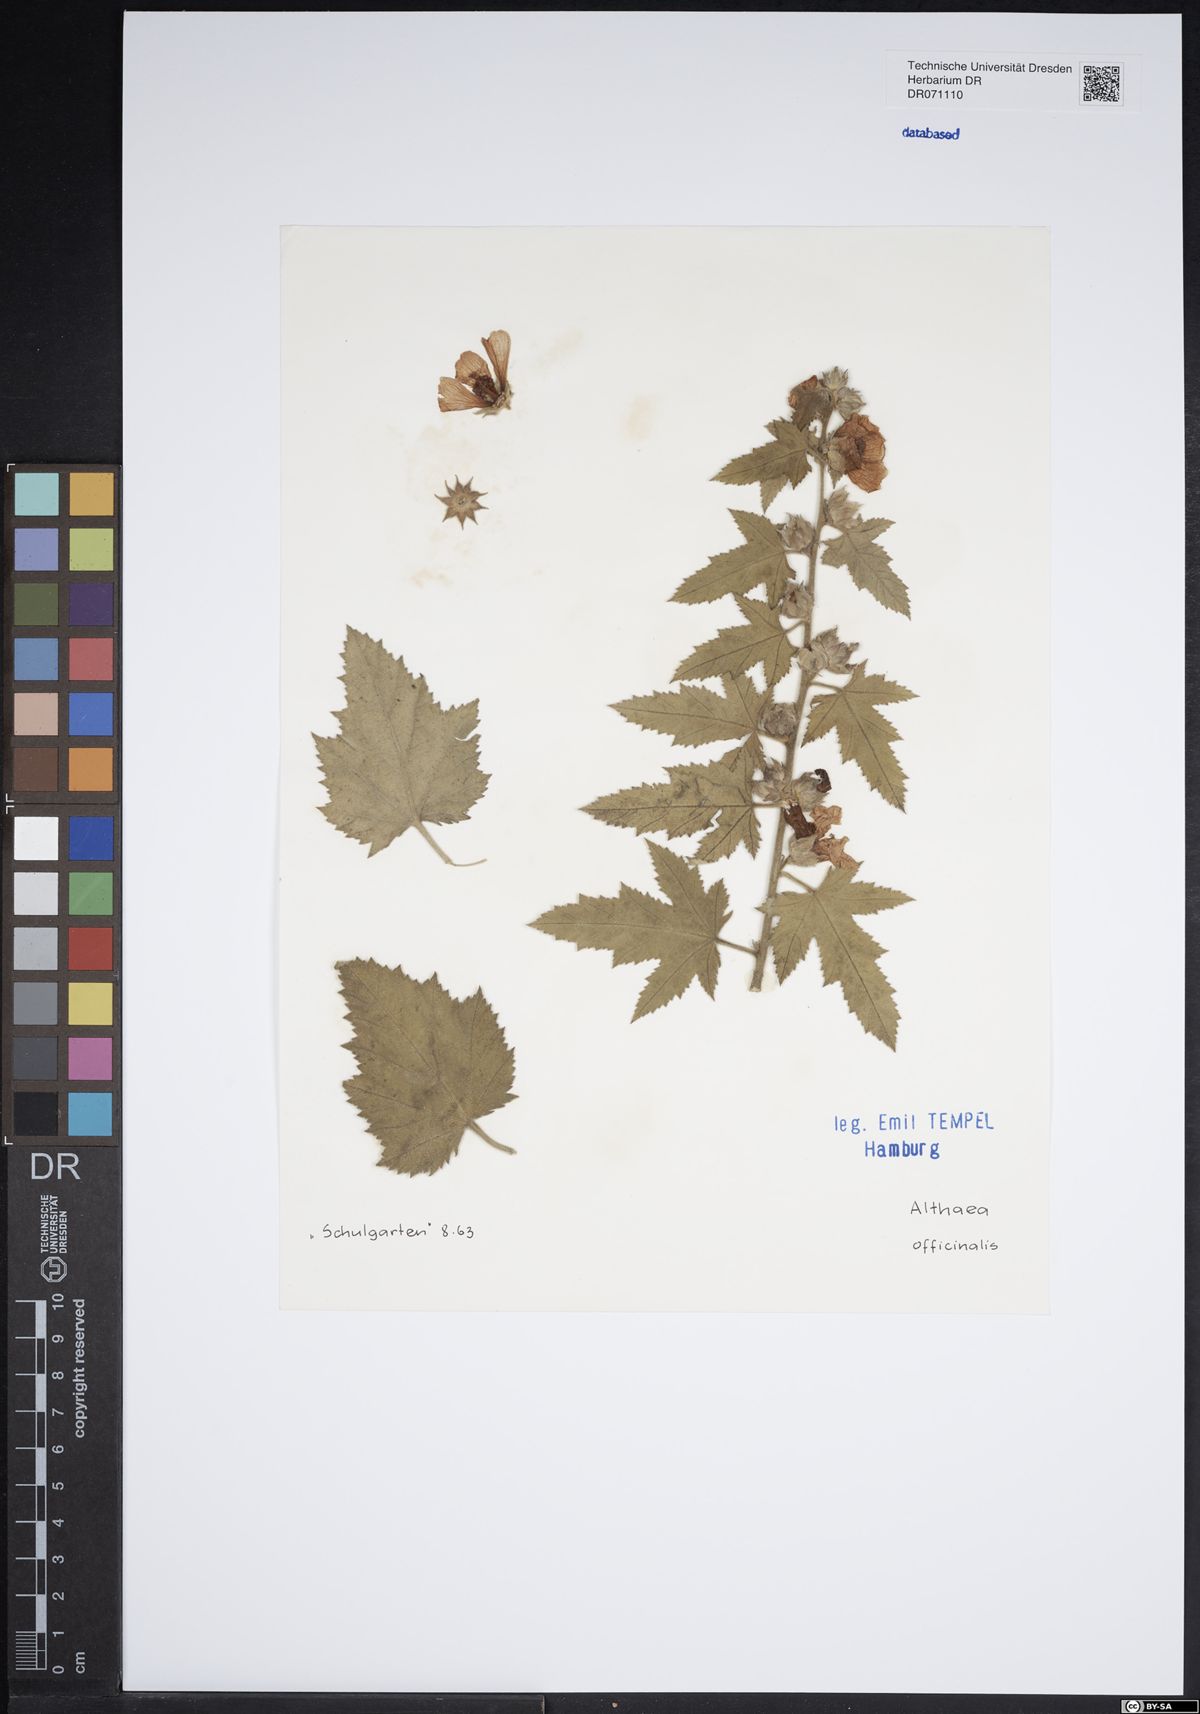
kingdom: Plantae
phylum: Tracheophyta
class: Magnoliopsida
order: Malvales
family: Malvaceae
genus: Althaea
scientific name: Althaea officinalis
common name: Marsh-mallow
